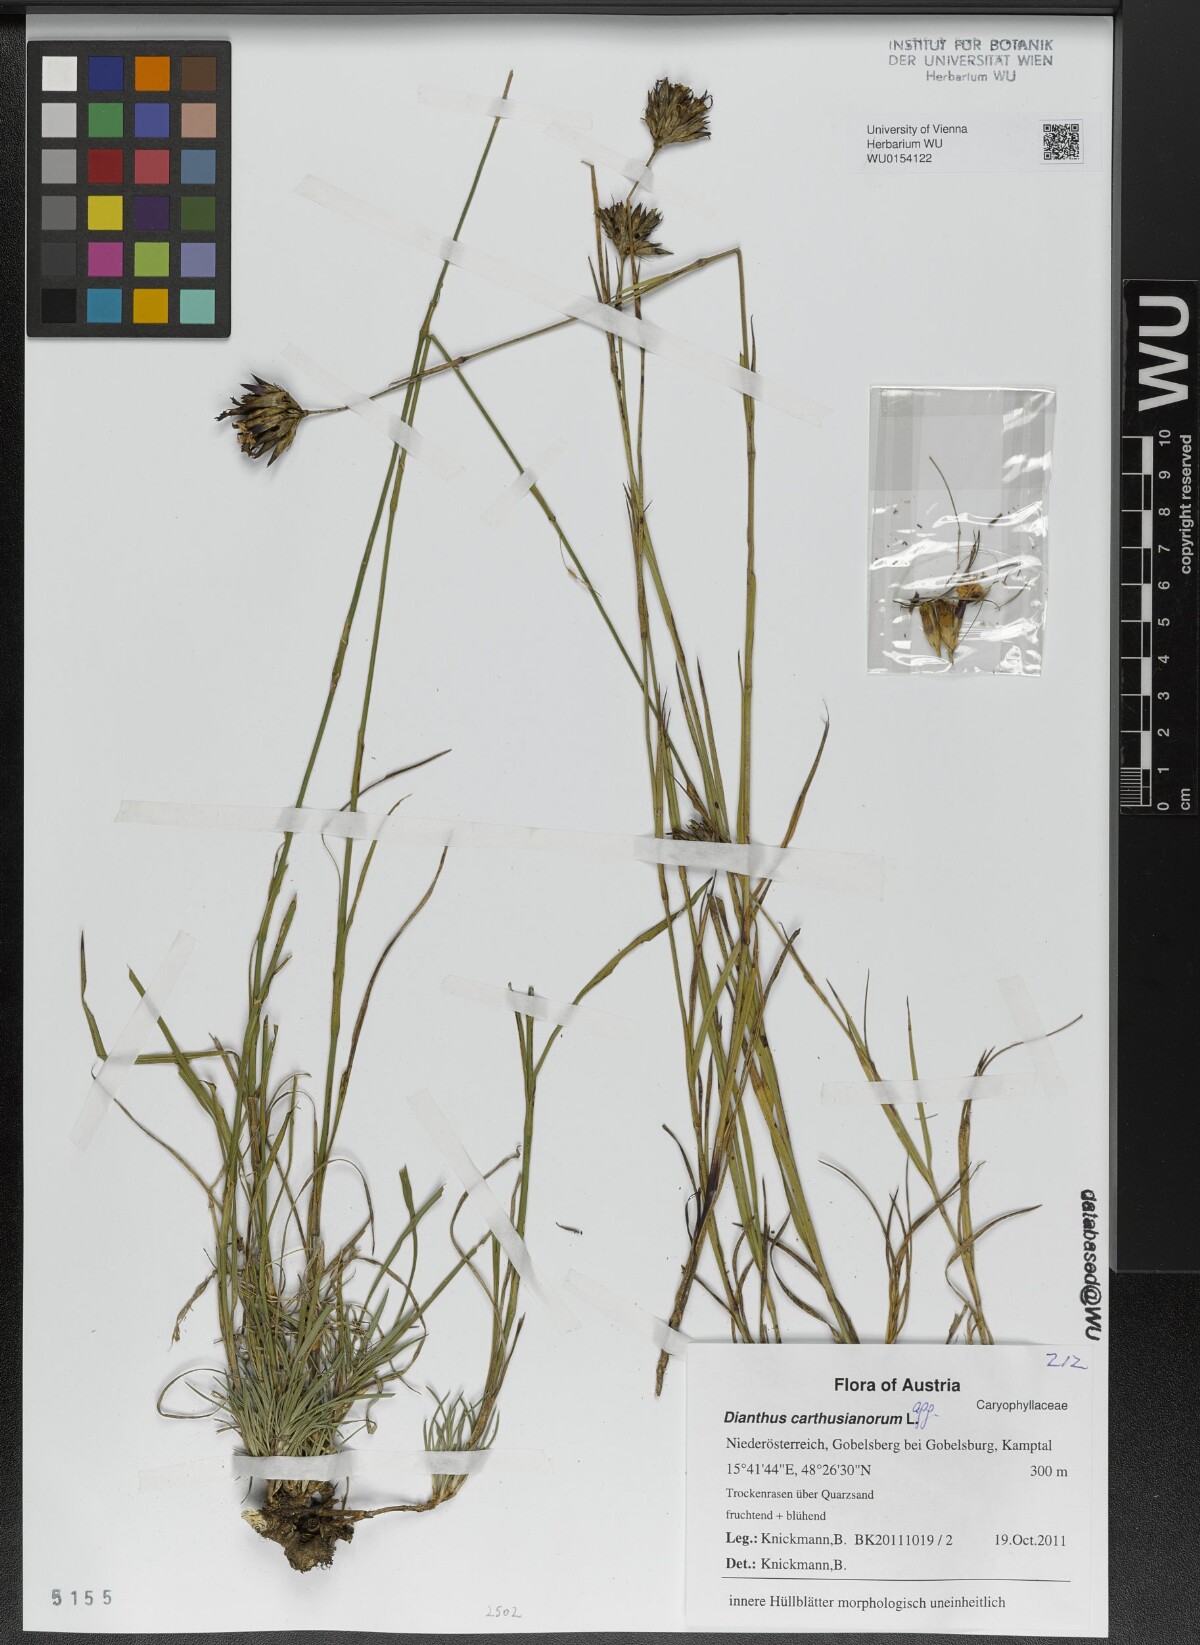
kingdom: Plantae
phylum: Tracheophyta
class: Magnoliopsida
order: Caryophyllales
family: Caryophyllaceae
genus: Dianthus
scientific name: Dianthus carthusianorum
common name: Carthusian pink
